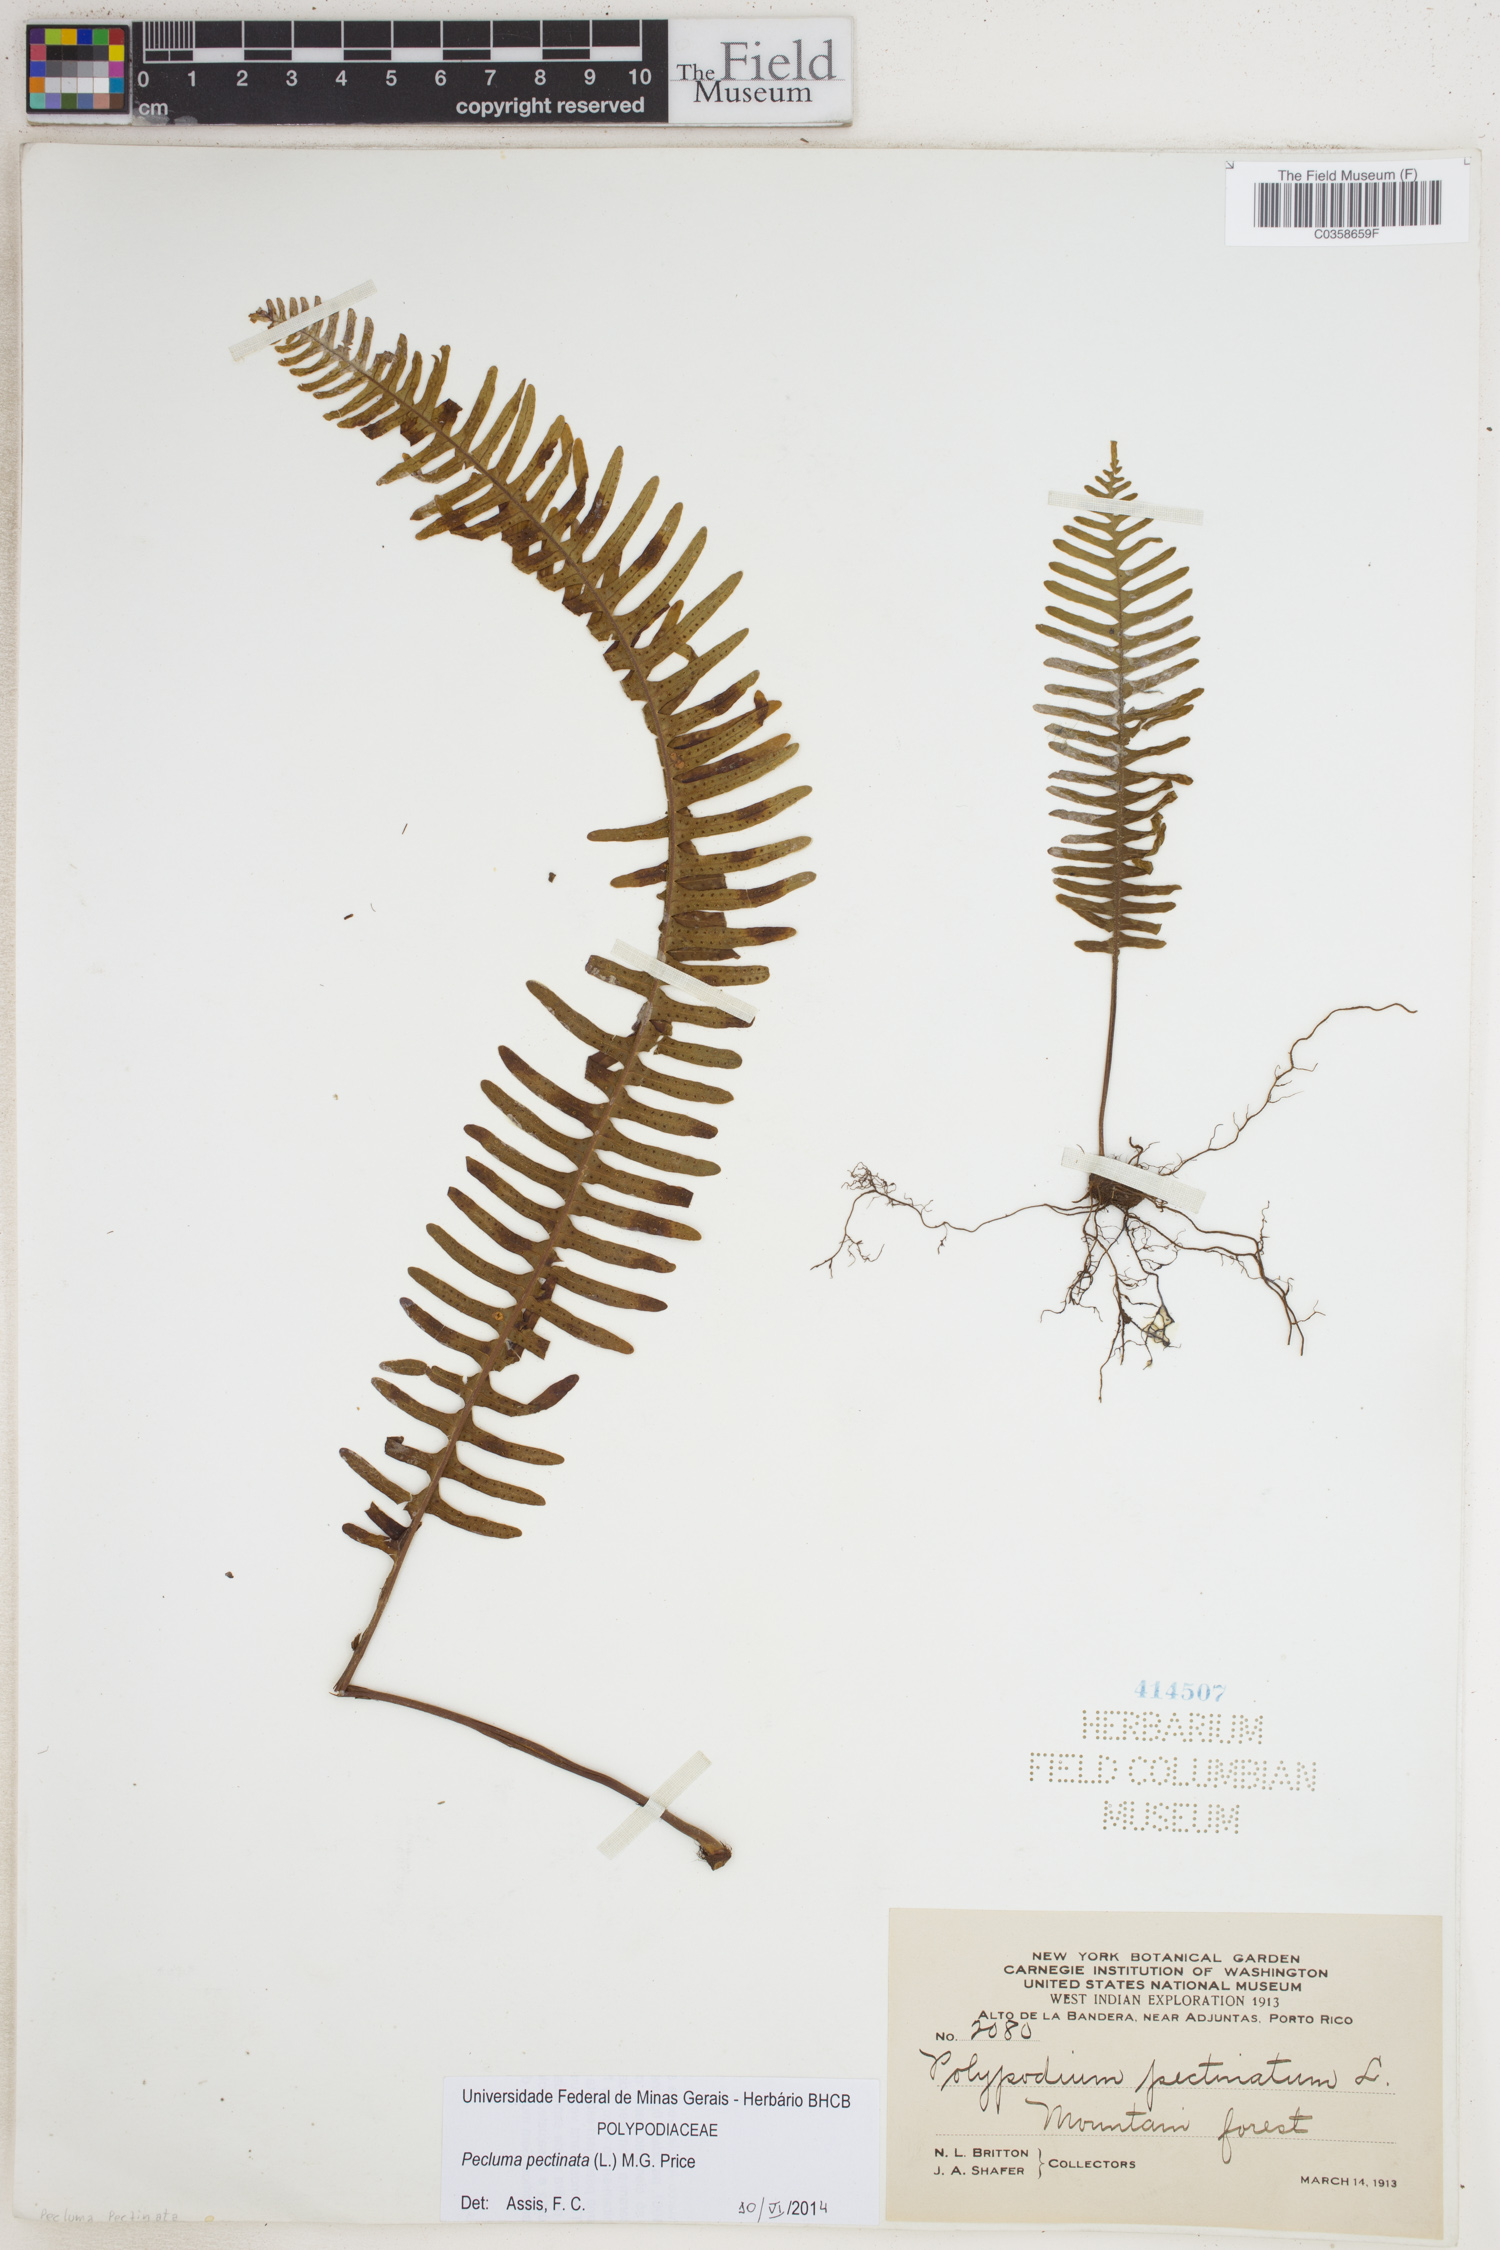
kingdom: Plantae
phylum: Tracheophyta
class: Polypodiopsida
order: Polypodiales
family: Polypodiaceae
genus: Pecluma
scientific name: Pecluma pectinata
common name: Msasa fern
